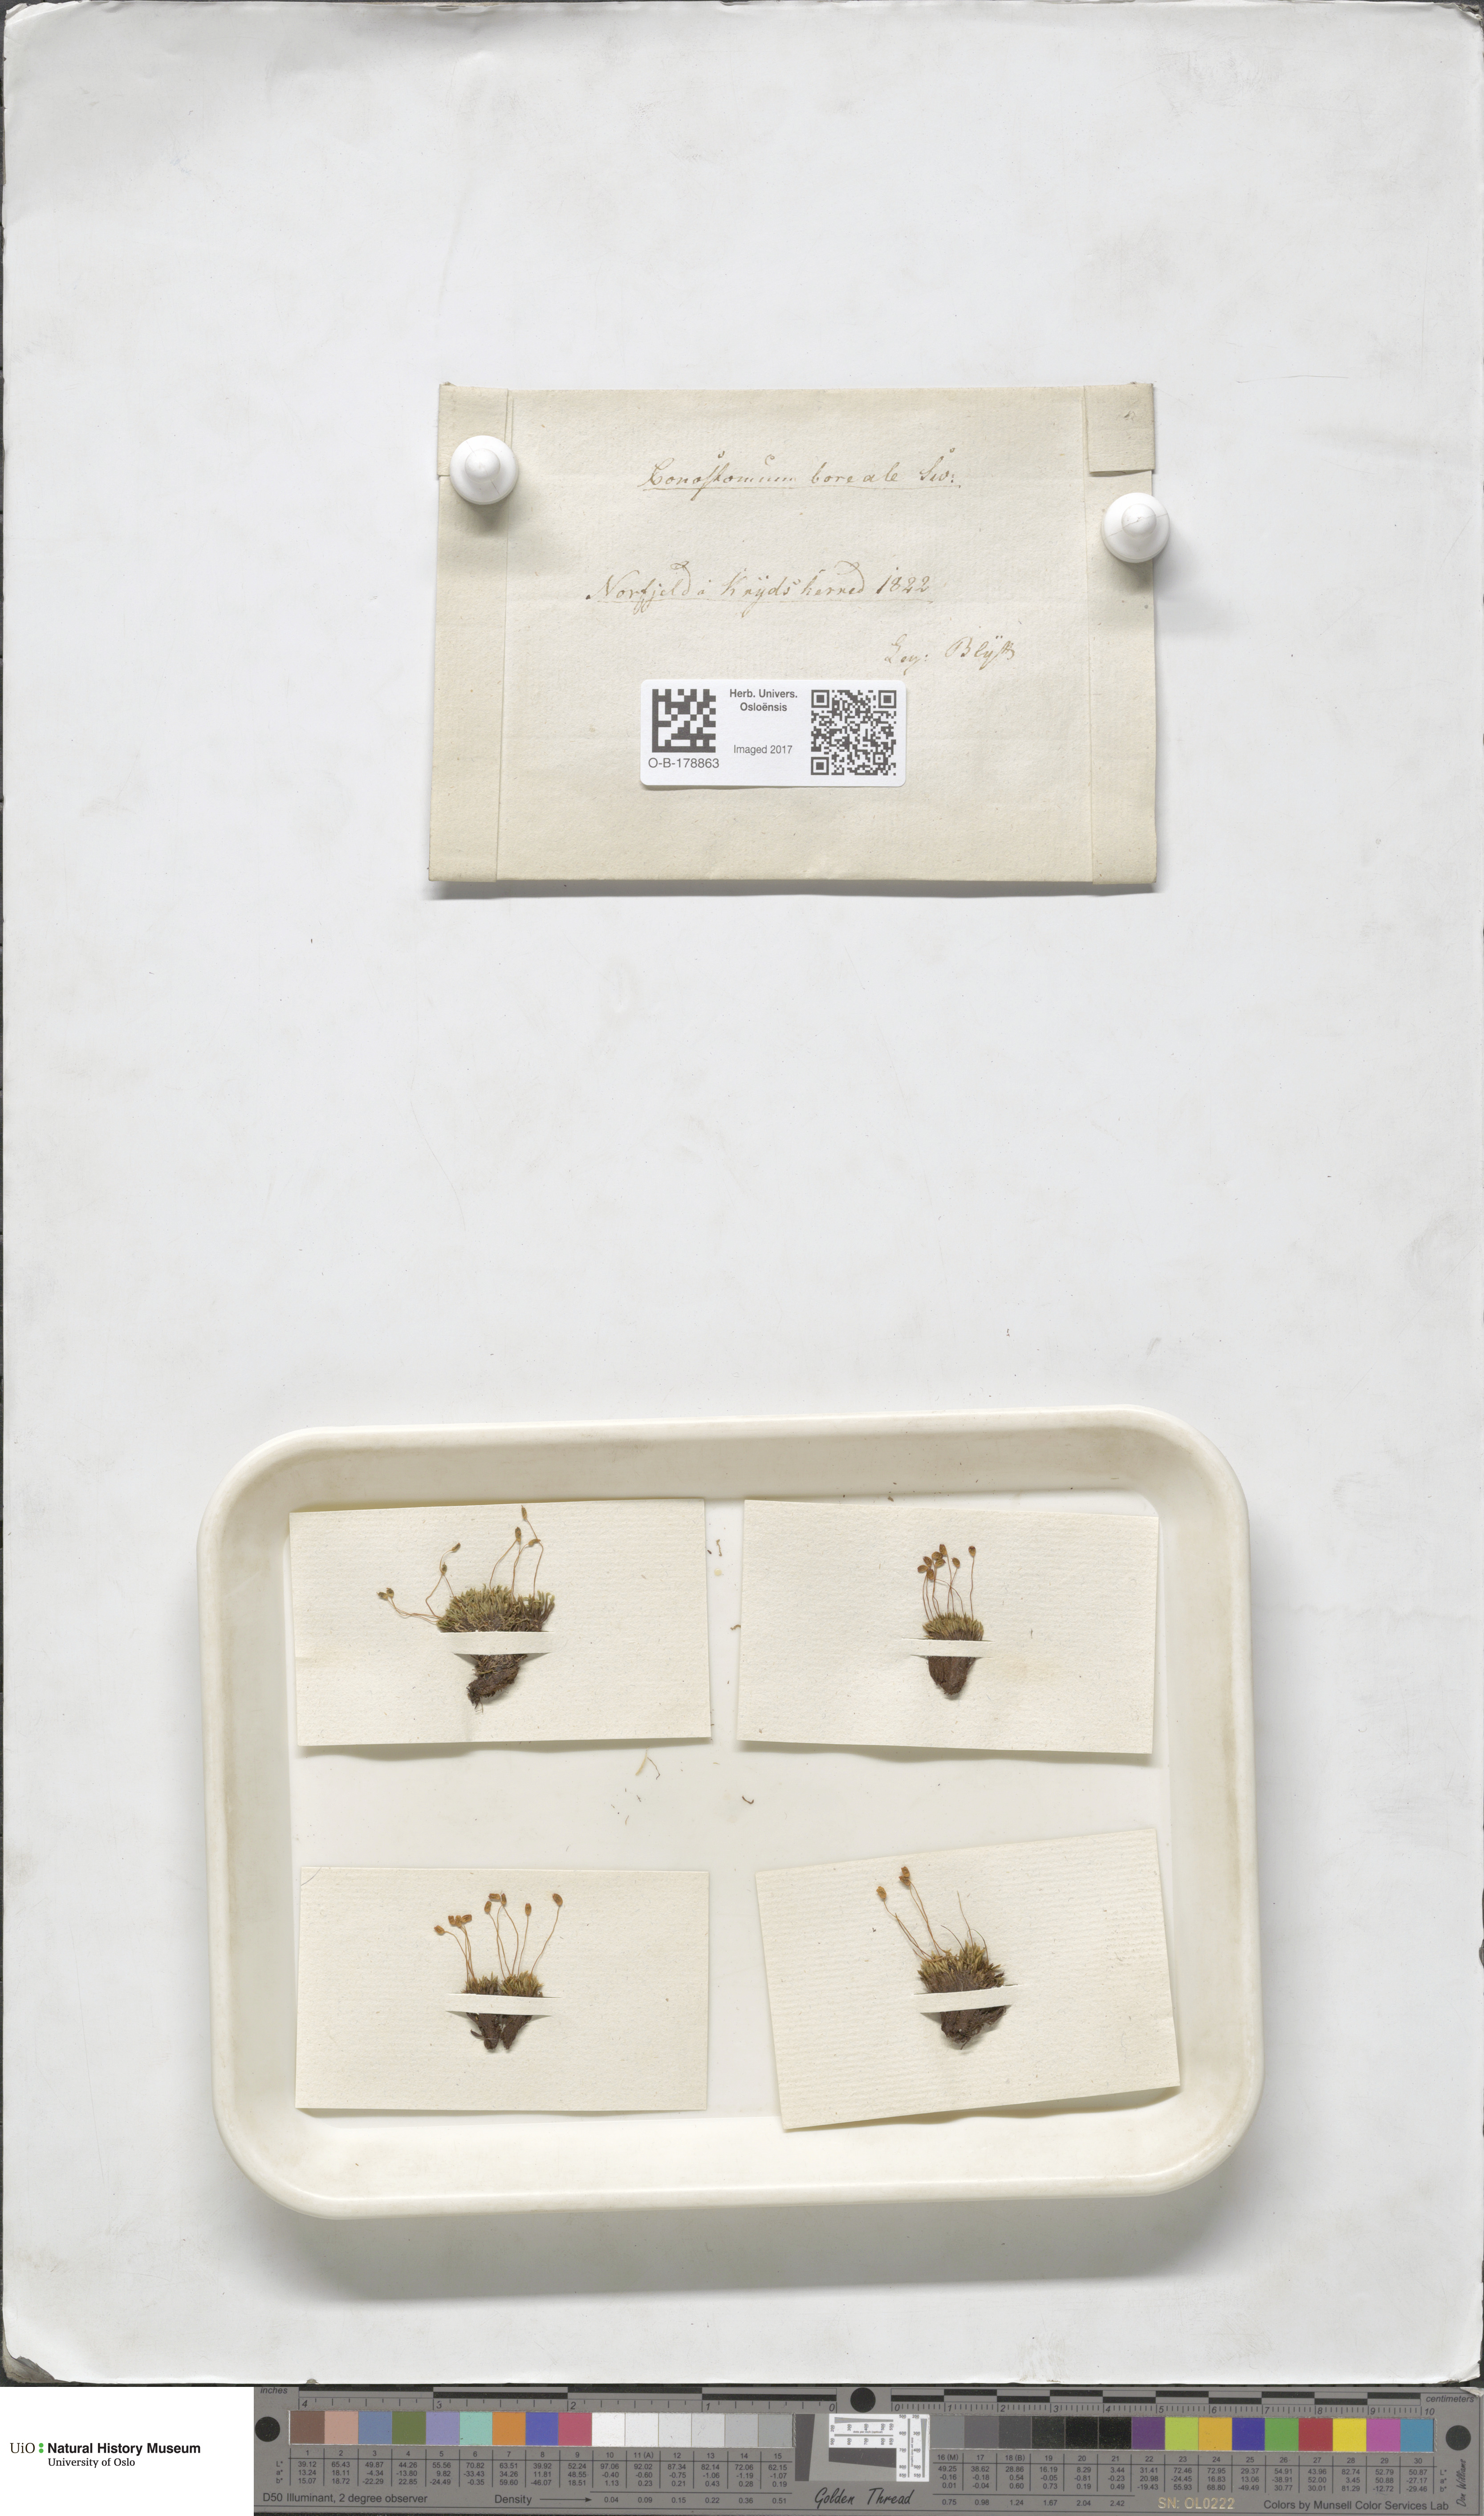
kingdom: Plantae
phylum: Bryophyta
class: Bryopsida
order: Bartramiales
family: Bartramiaceae
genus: Conostomum
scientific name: Conostomum tetragonum
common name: Helmet moss
